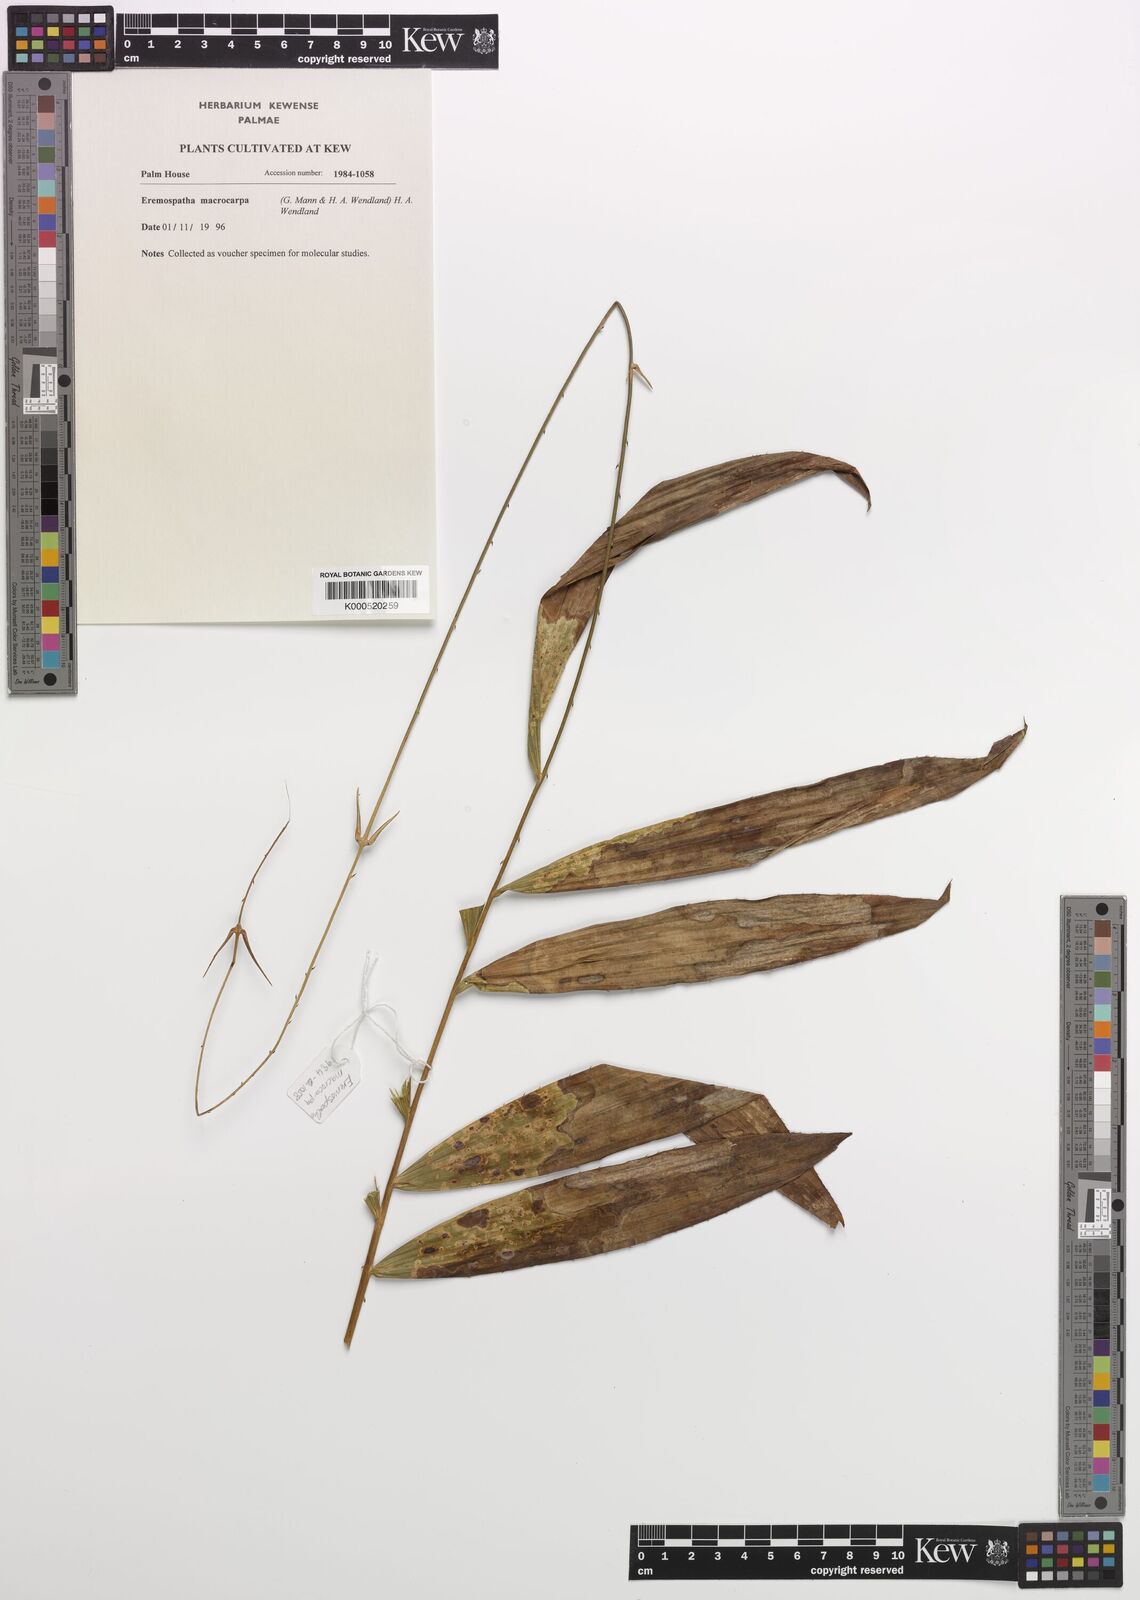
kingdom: Plantae
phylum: Tracheophyta
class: Liliopsida
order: Arecales
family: Arecaceae
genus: Eremospatha
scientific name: Eremospatha laurentii
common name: Rattan palm
